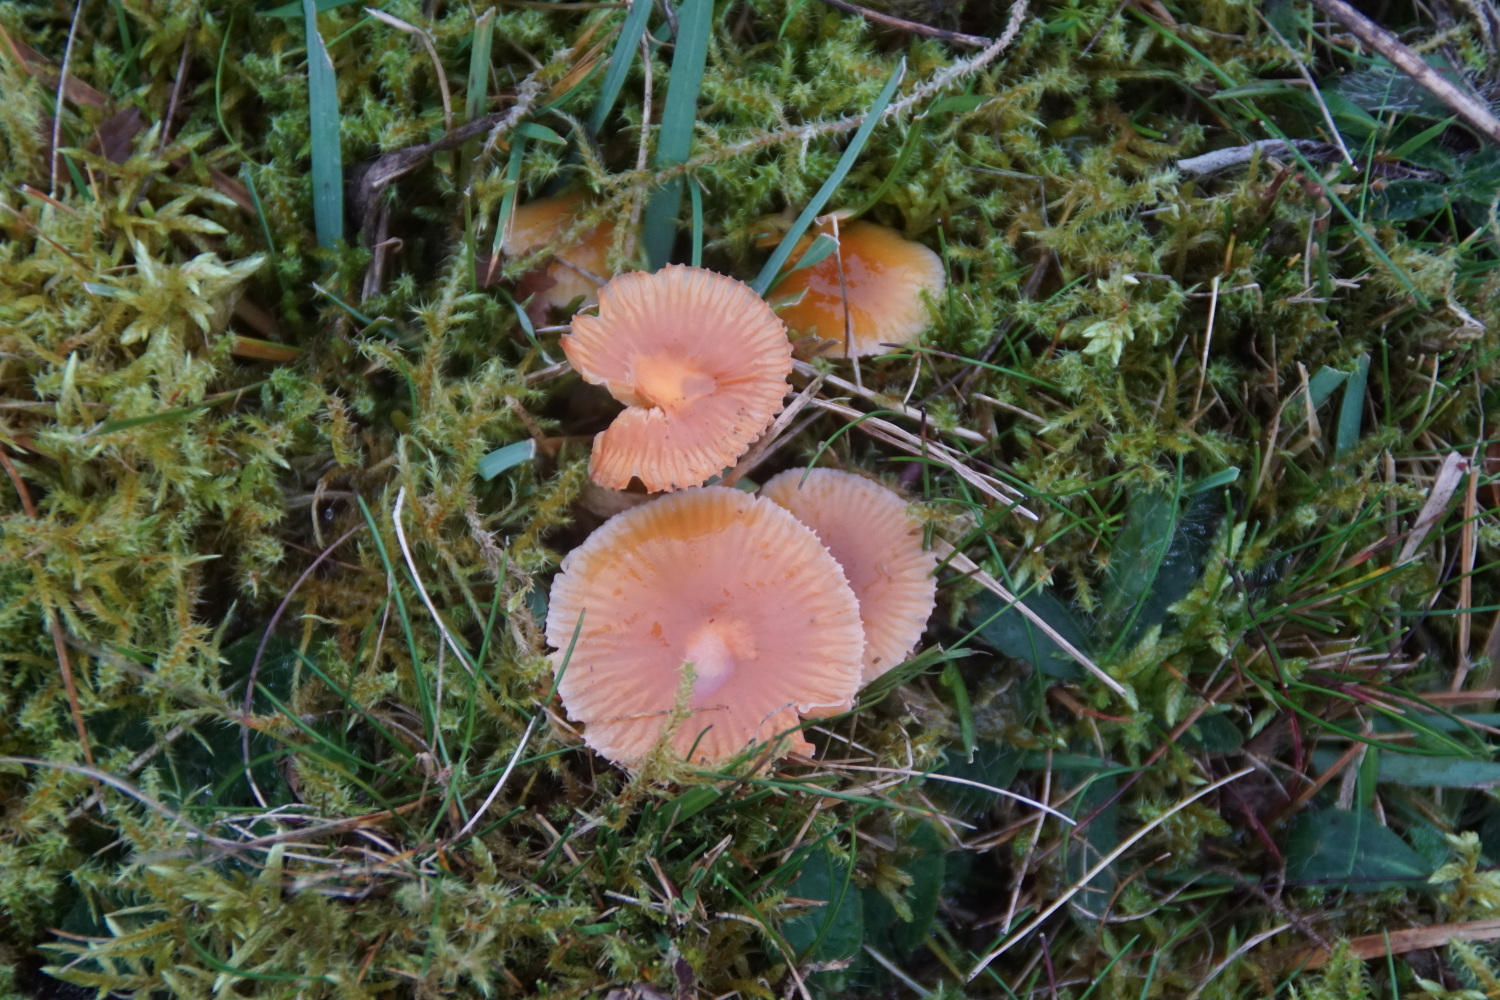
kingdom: Fungi
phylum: Basidiomycota
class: Agaricomycetes
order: Agaricales
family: Hygrophoraceae
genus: Gliophorus
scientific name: Gliophorus laetus
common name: brusk-vokshat
